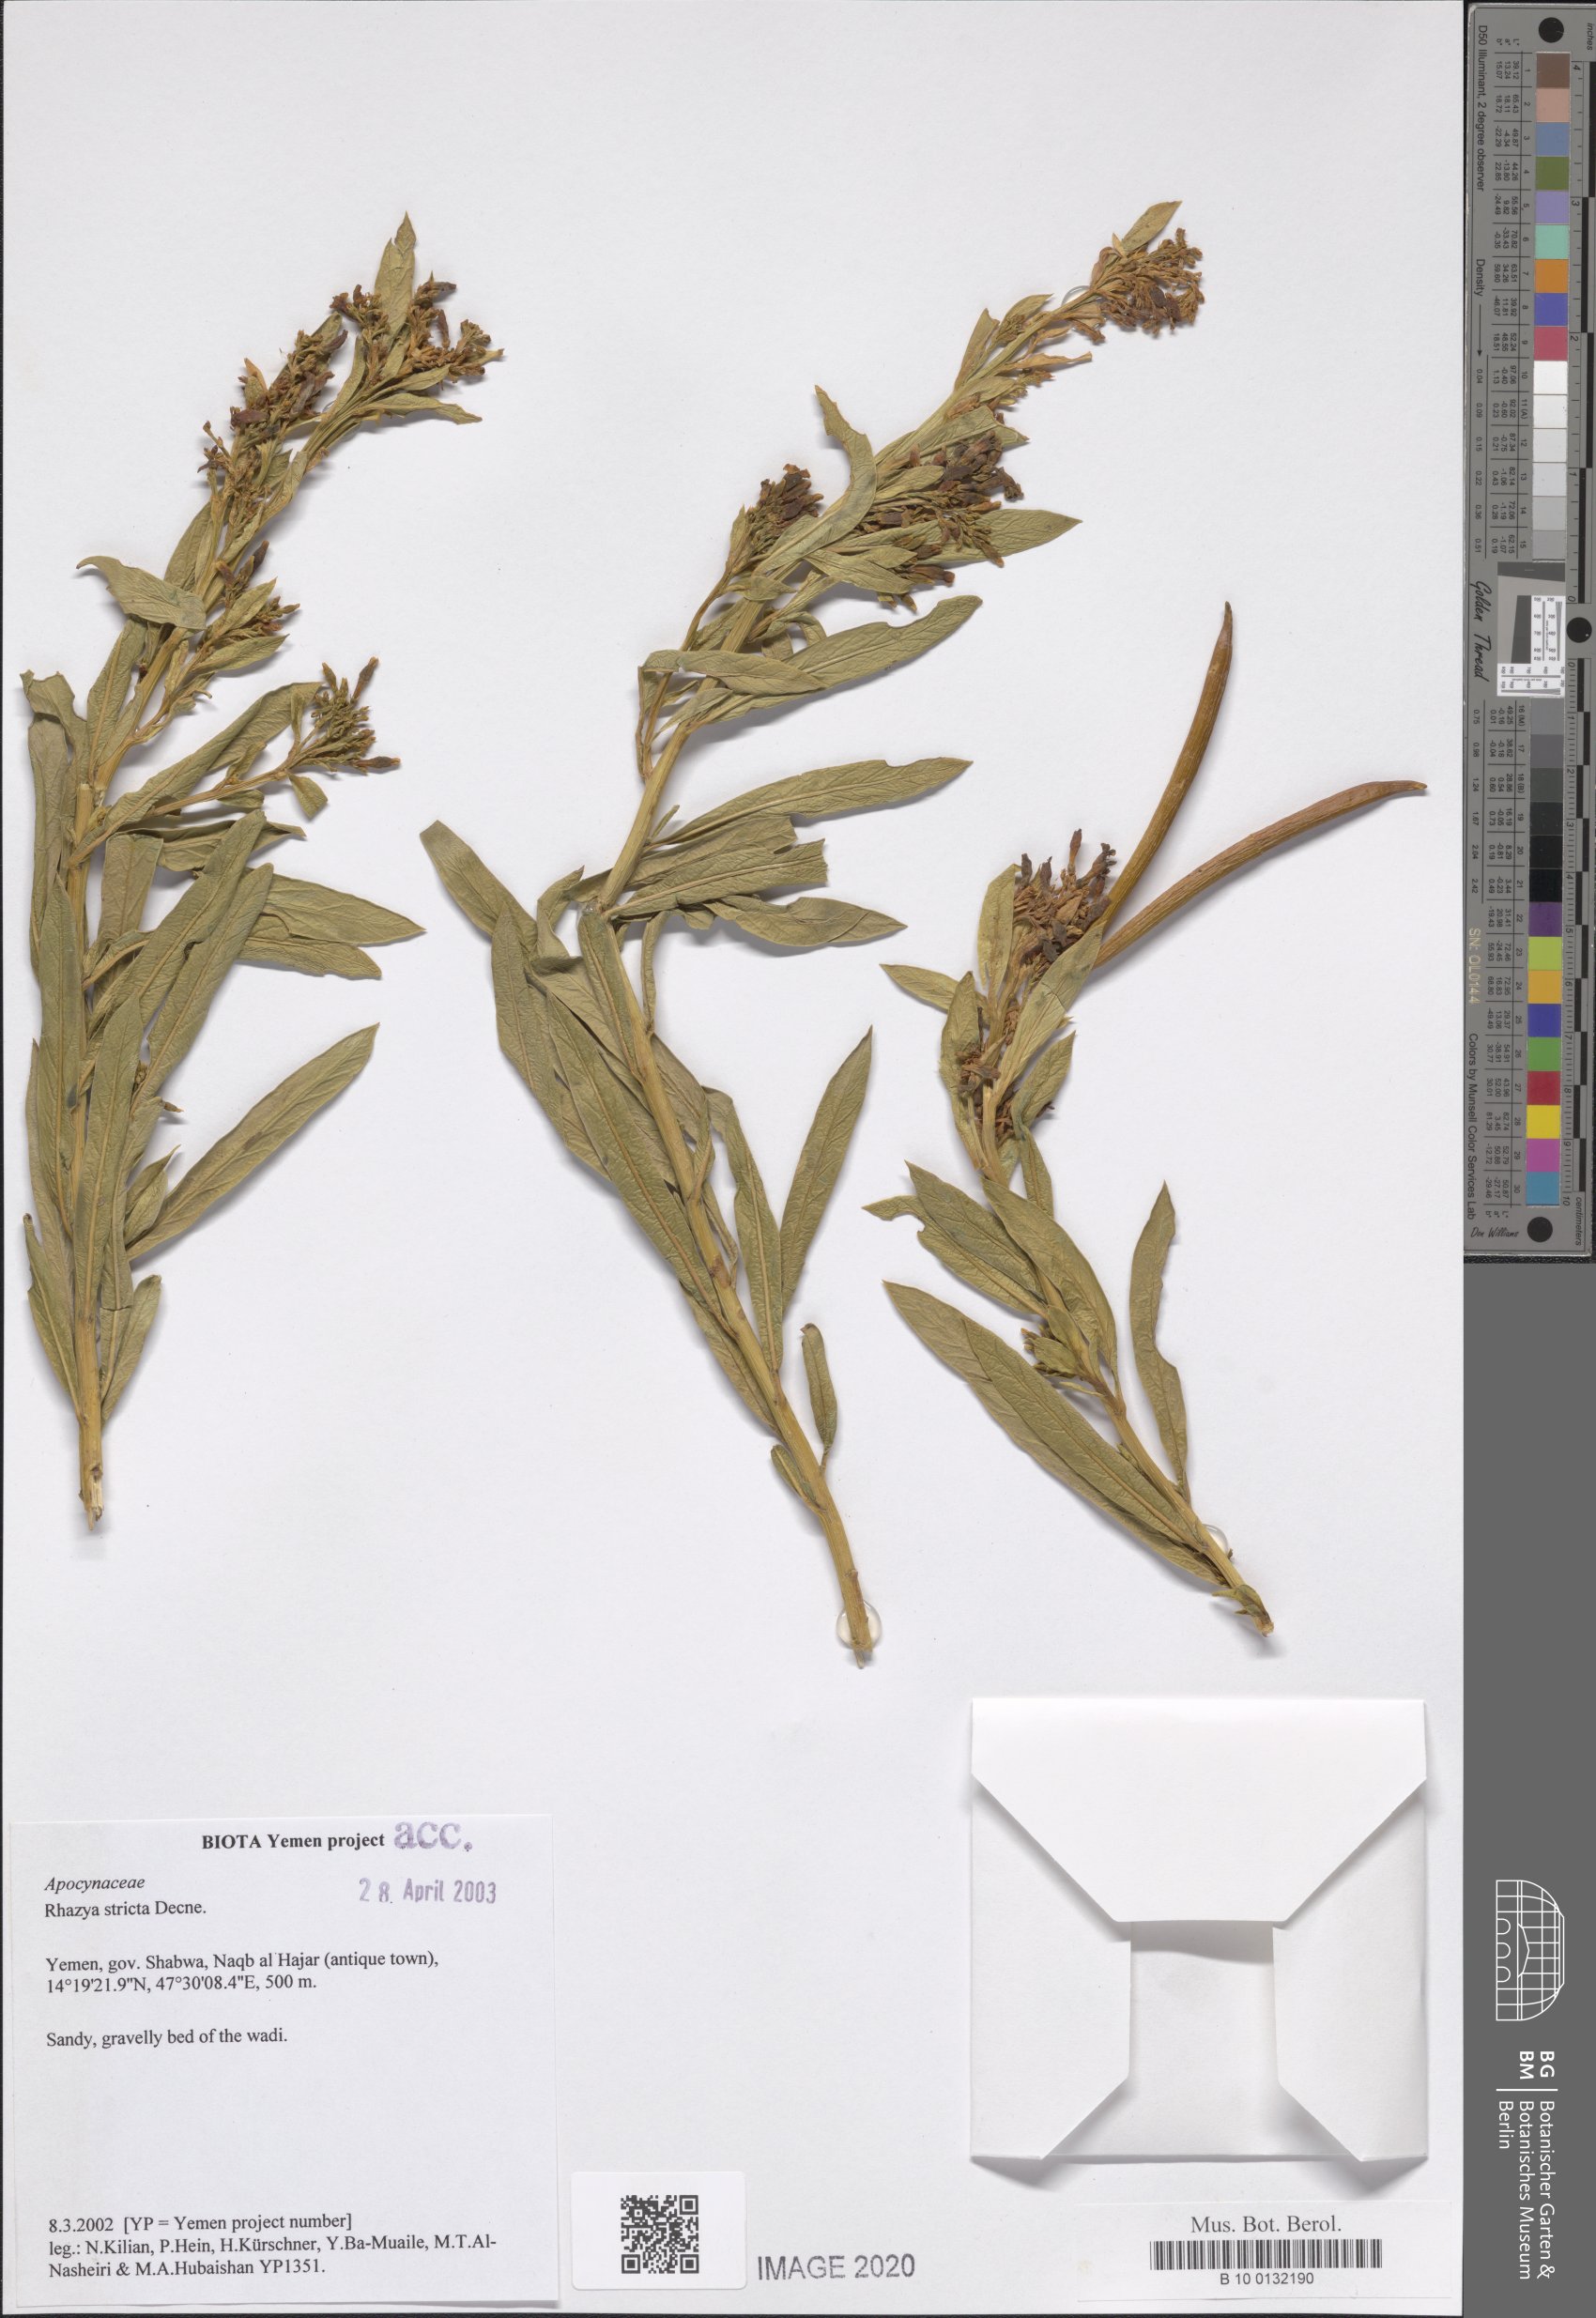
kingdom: Plantae
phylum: Tracheophyta
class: Magnoliopsida
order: Gentianales
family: Apocynaceae
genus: Rhazya
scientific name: Rhazya stricta
